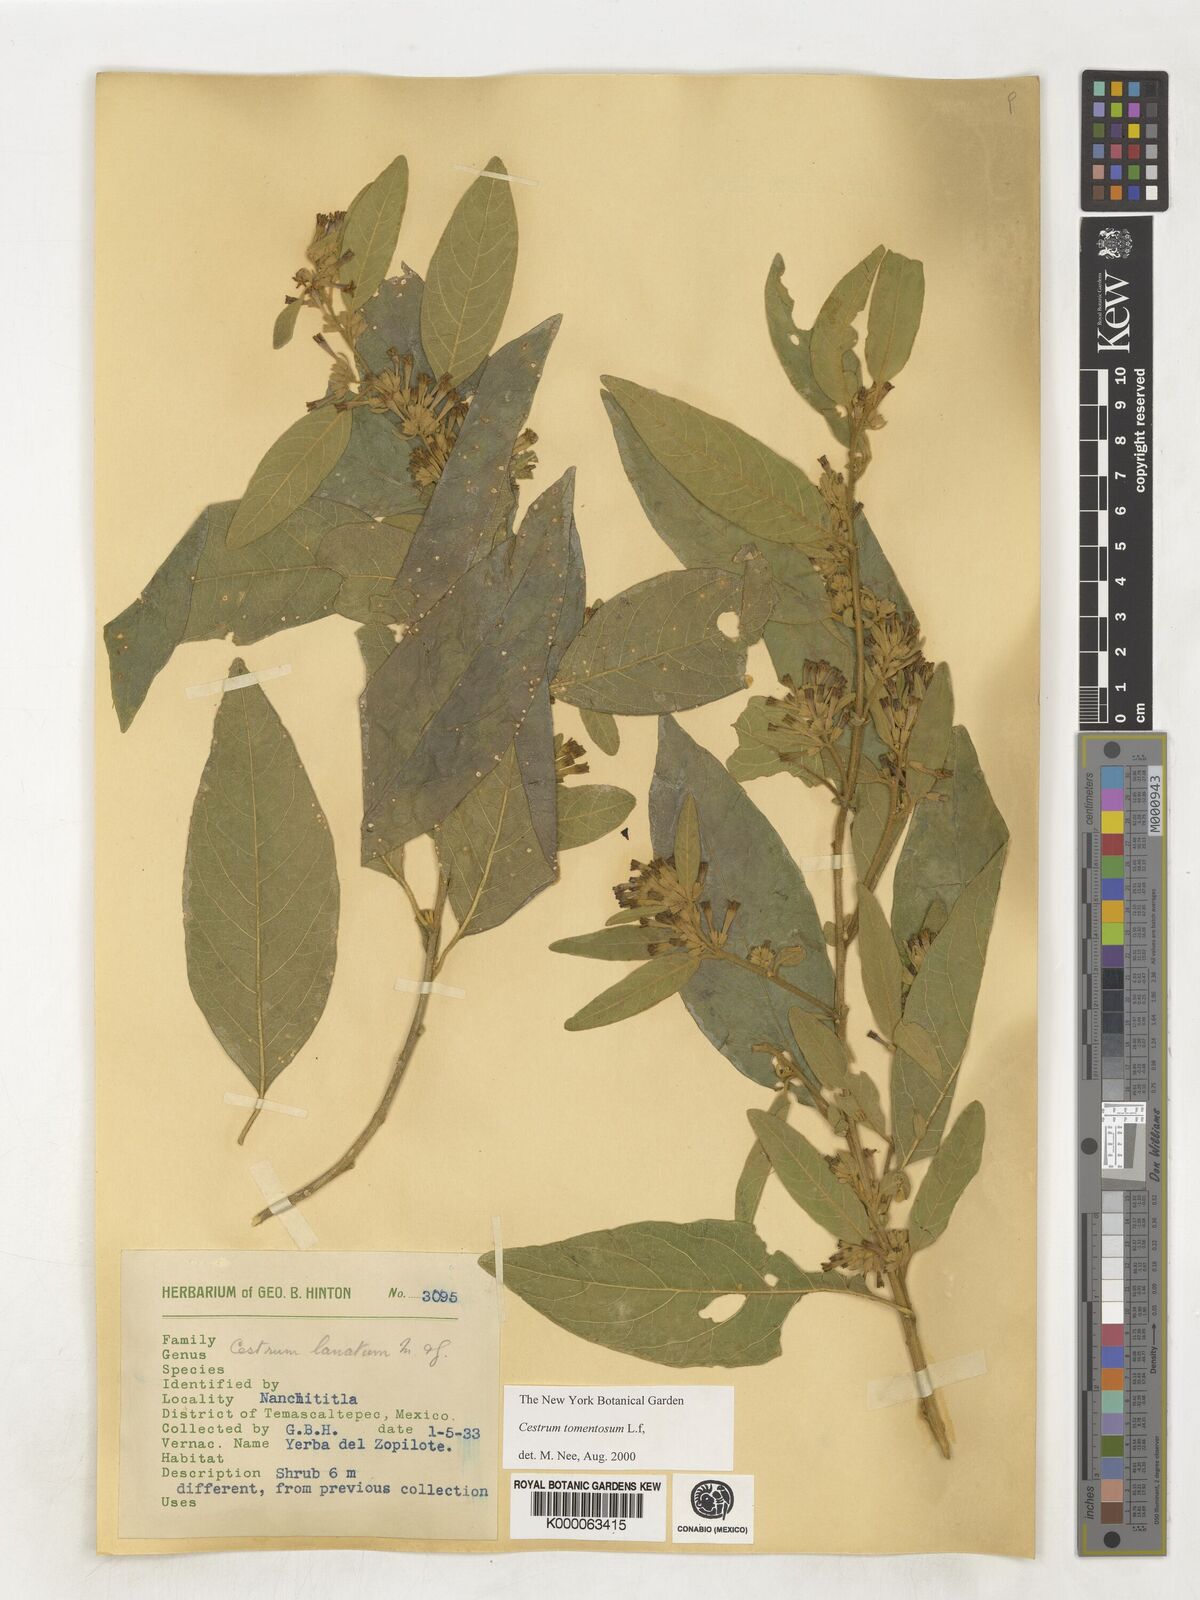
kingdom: Plantae
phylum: Tracheophyta
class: Magnoliopsida
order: Solanales
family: Solanaceae
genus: Cestrum
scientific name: Cestrum tomentosum
